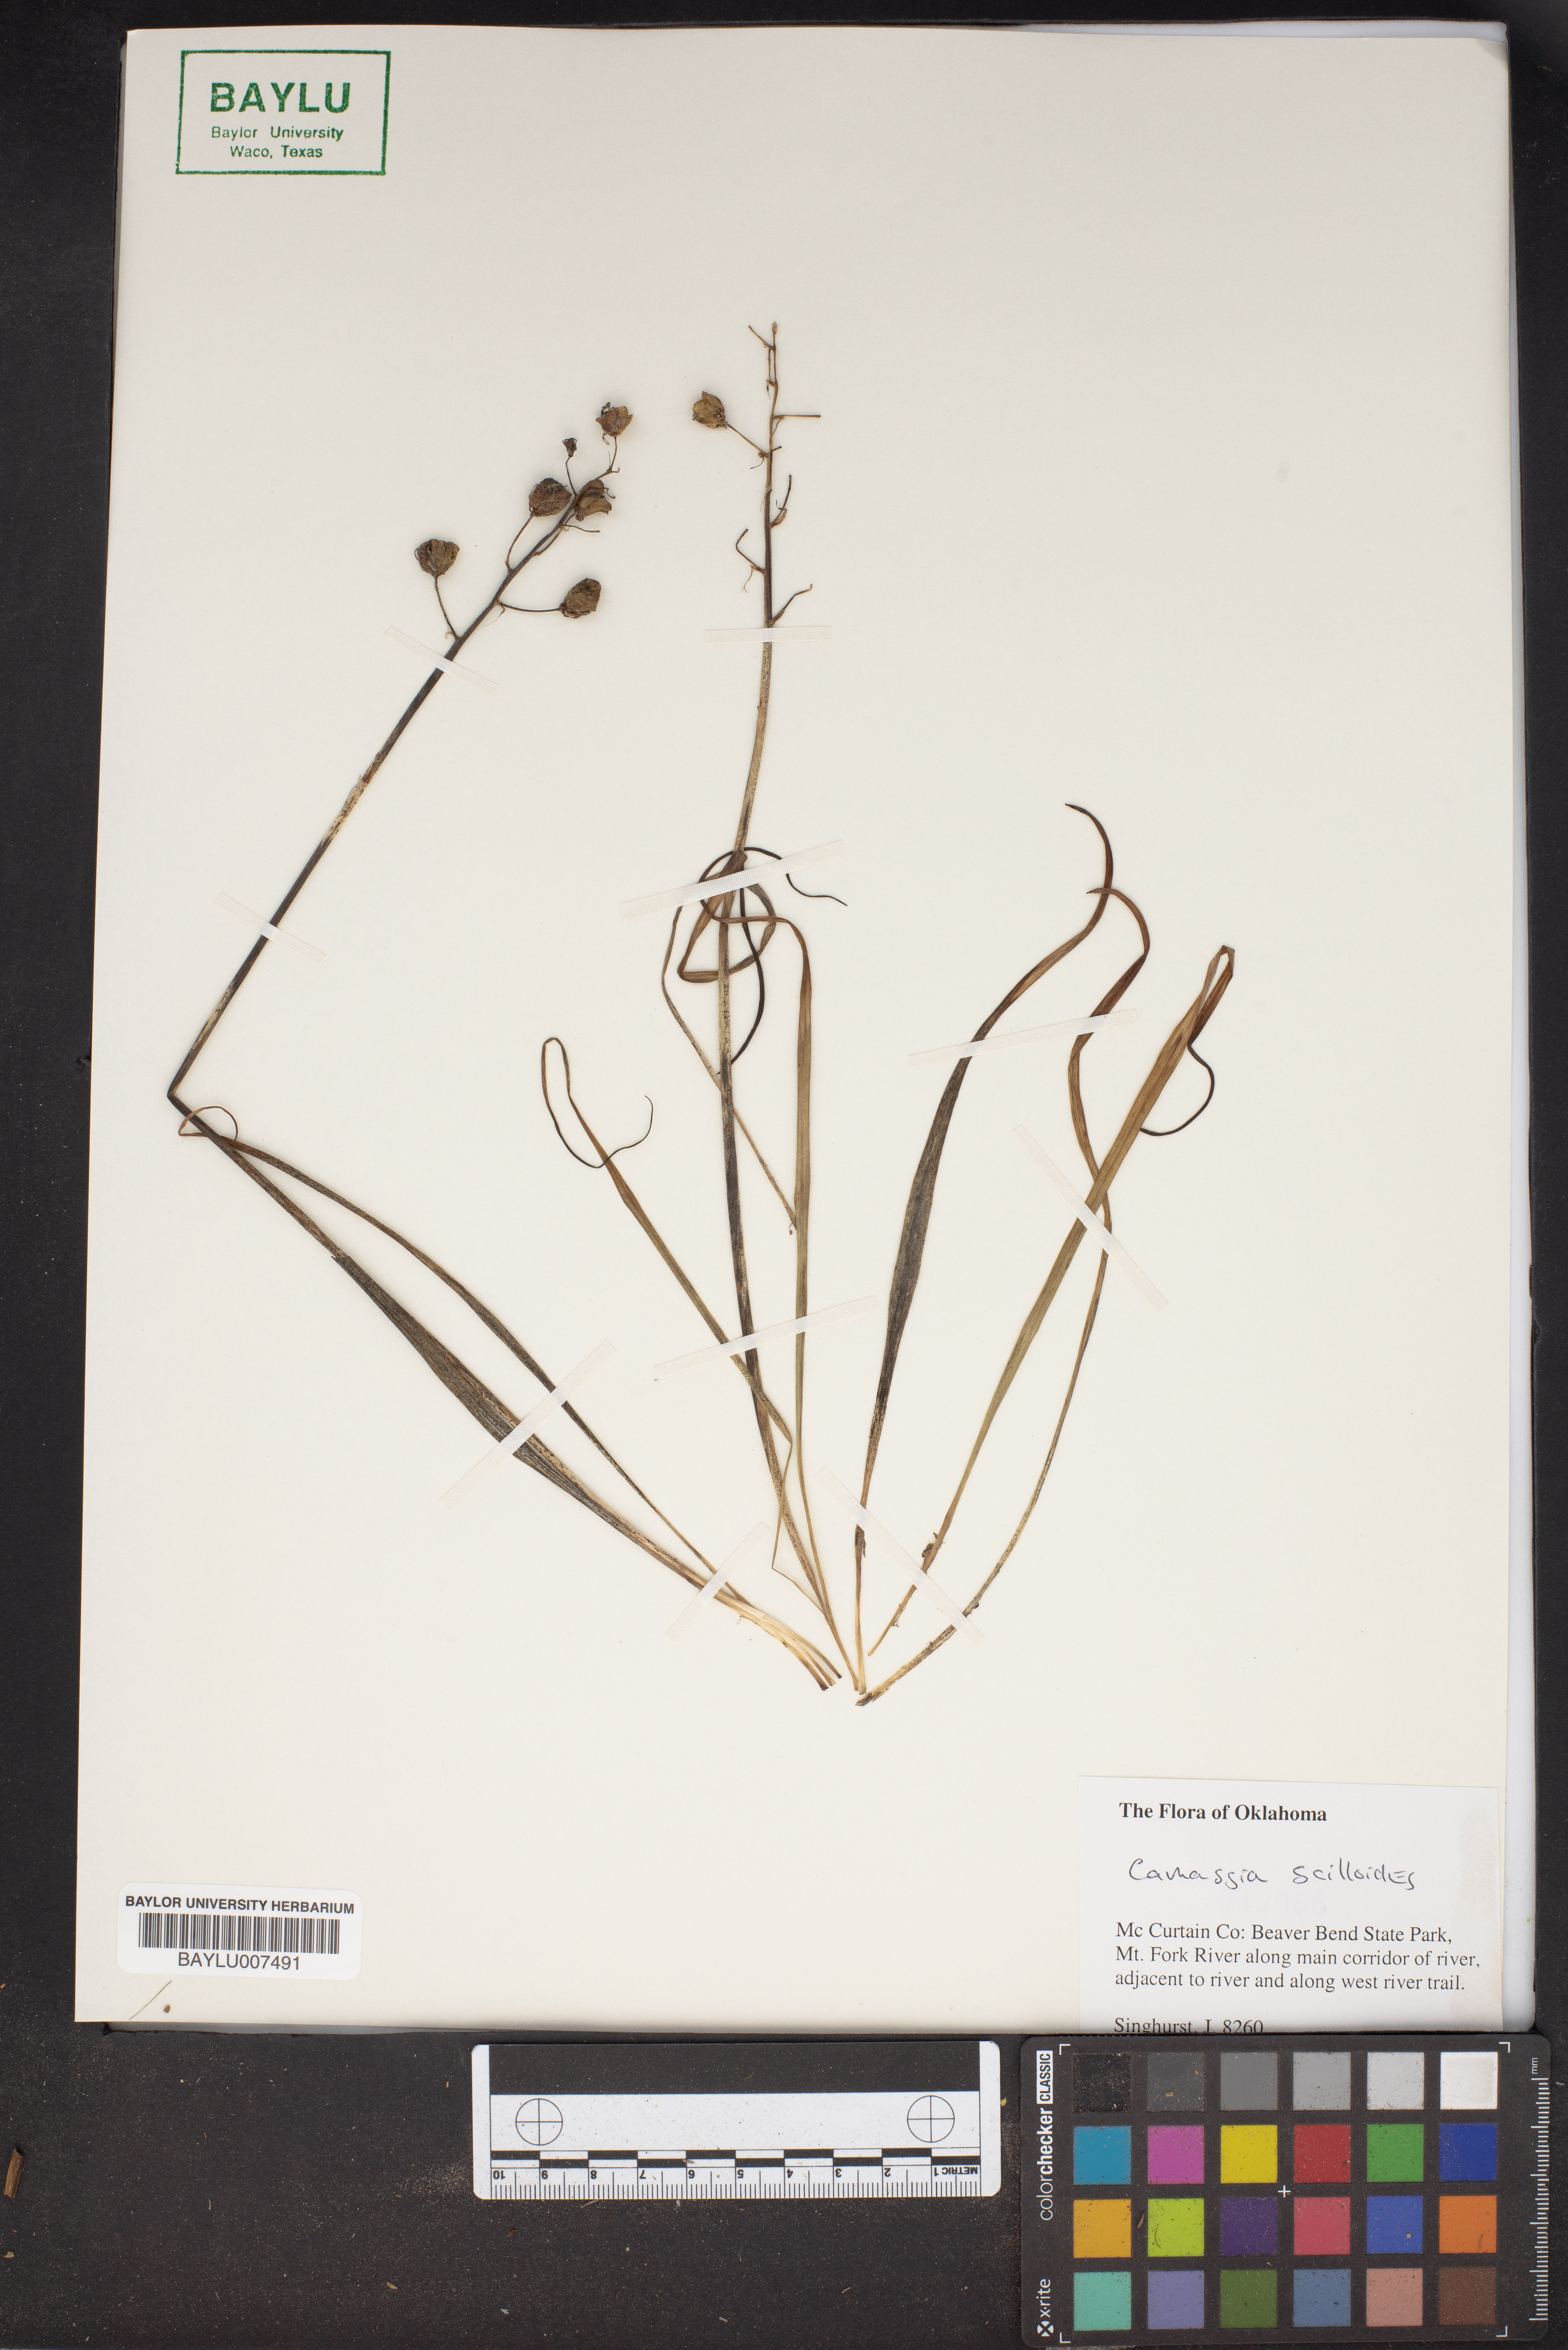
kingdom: Plantae
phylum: Tracheophyta
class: Liliopsida
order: Asparagales
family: Asparagaceae
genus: Camassia
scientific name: Camassia scilloides
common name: Wild hyacinth
